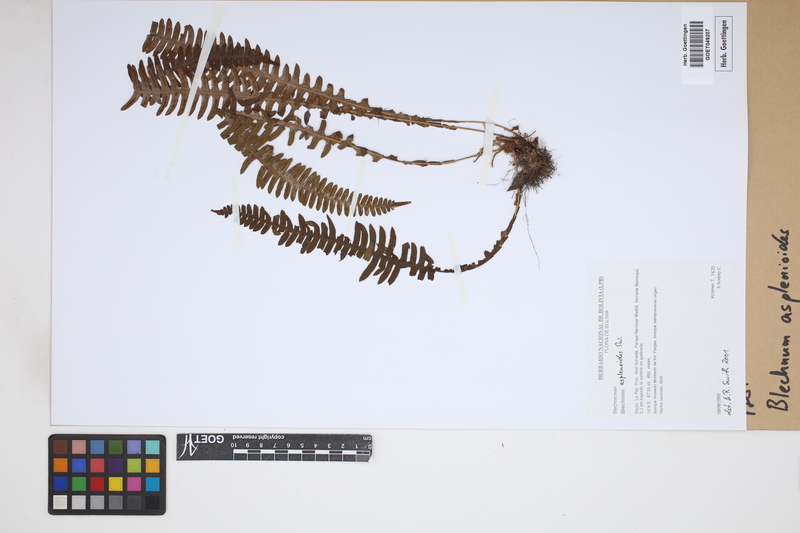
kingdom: Plantae
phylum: Tracheophyta
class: Polypodiopsida
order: Polypodiales
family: Blechnaceae
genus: Blechnum
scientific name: Blechnum asplenioides
